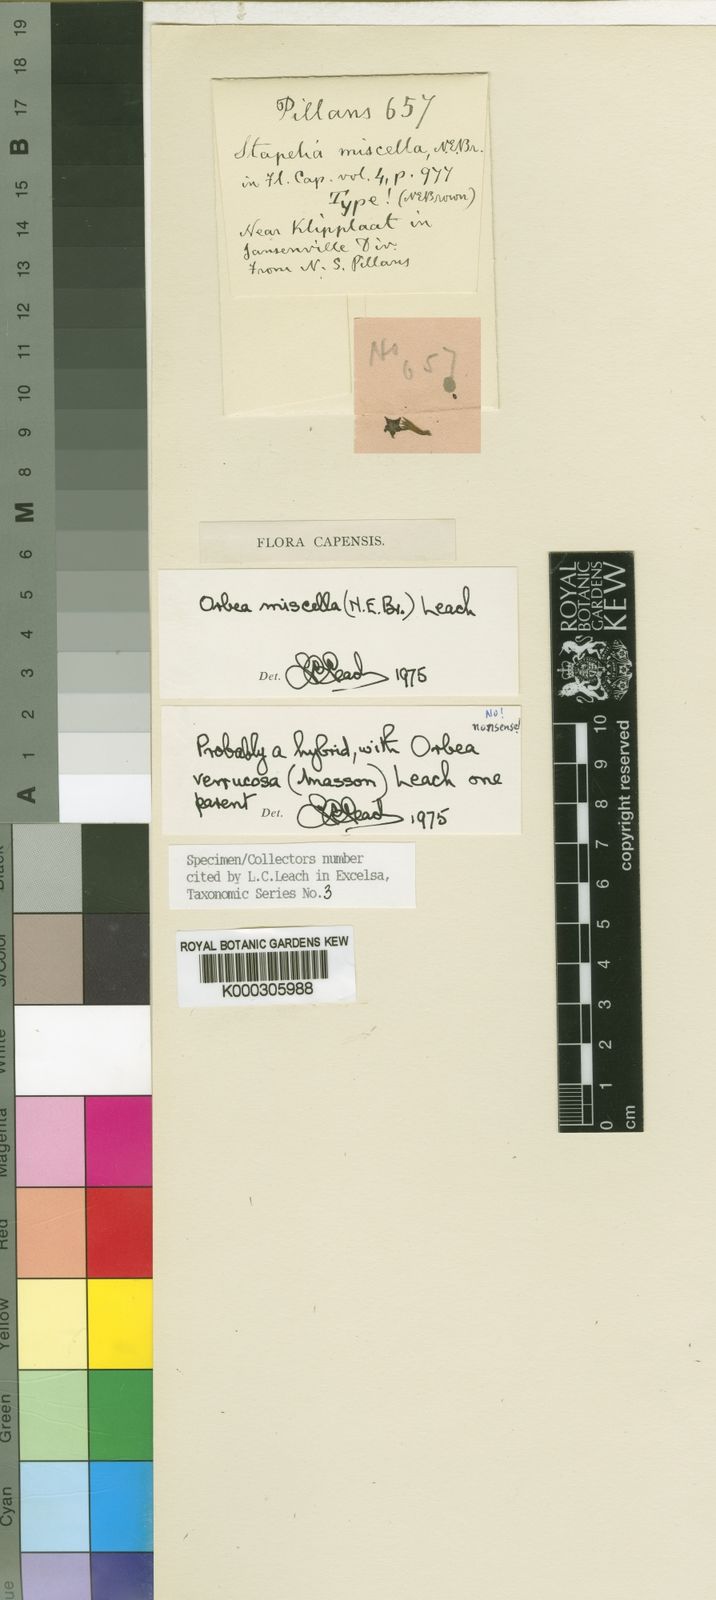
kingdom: Plantae
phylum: Tracheophyta
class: Magnoliopsida
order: Gentianales
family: Apocynaceae
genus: Ceropegia
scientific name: Ceropegia miscella
